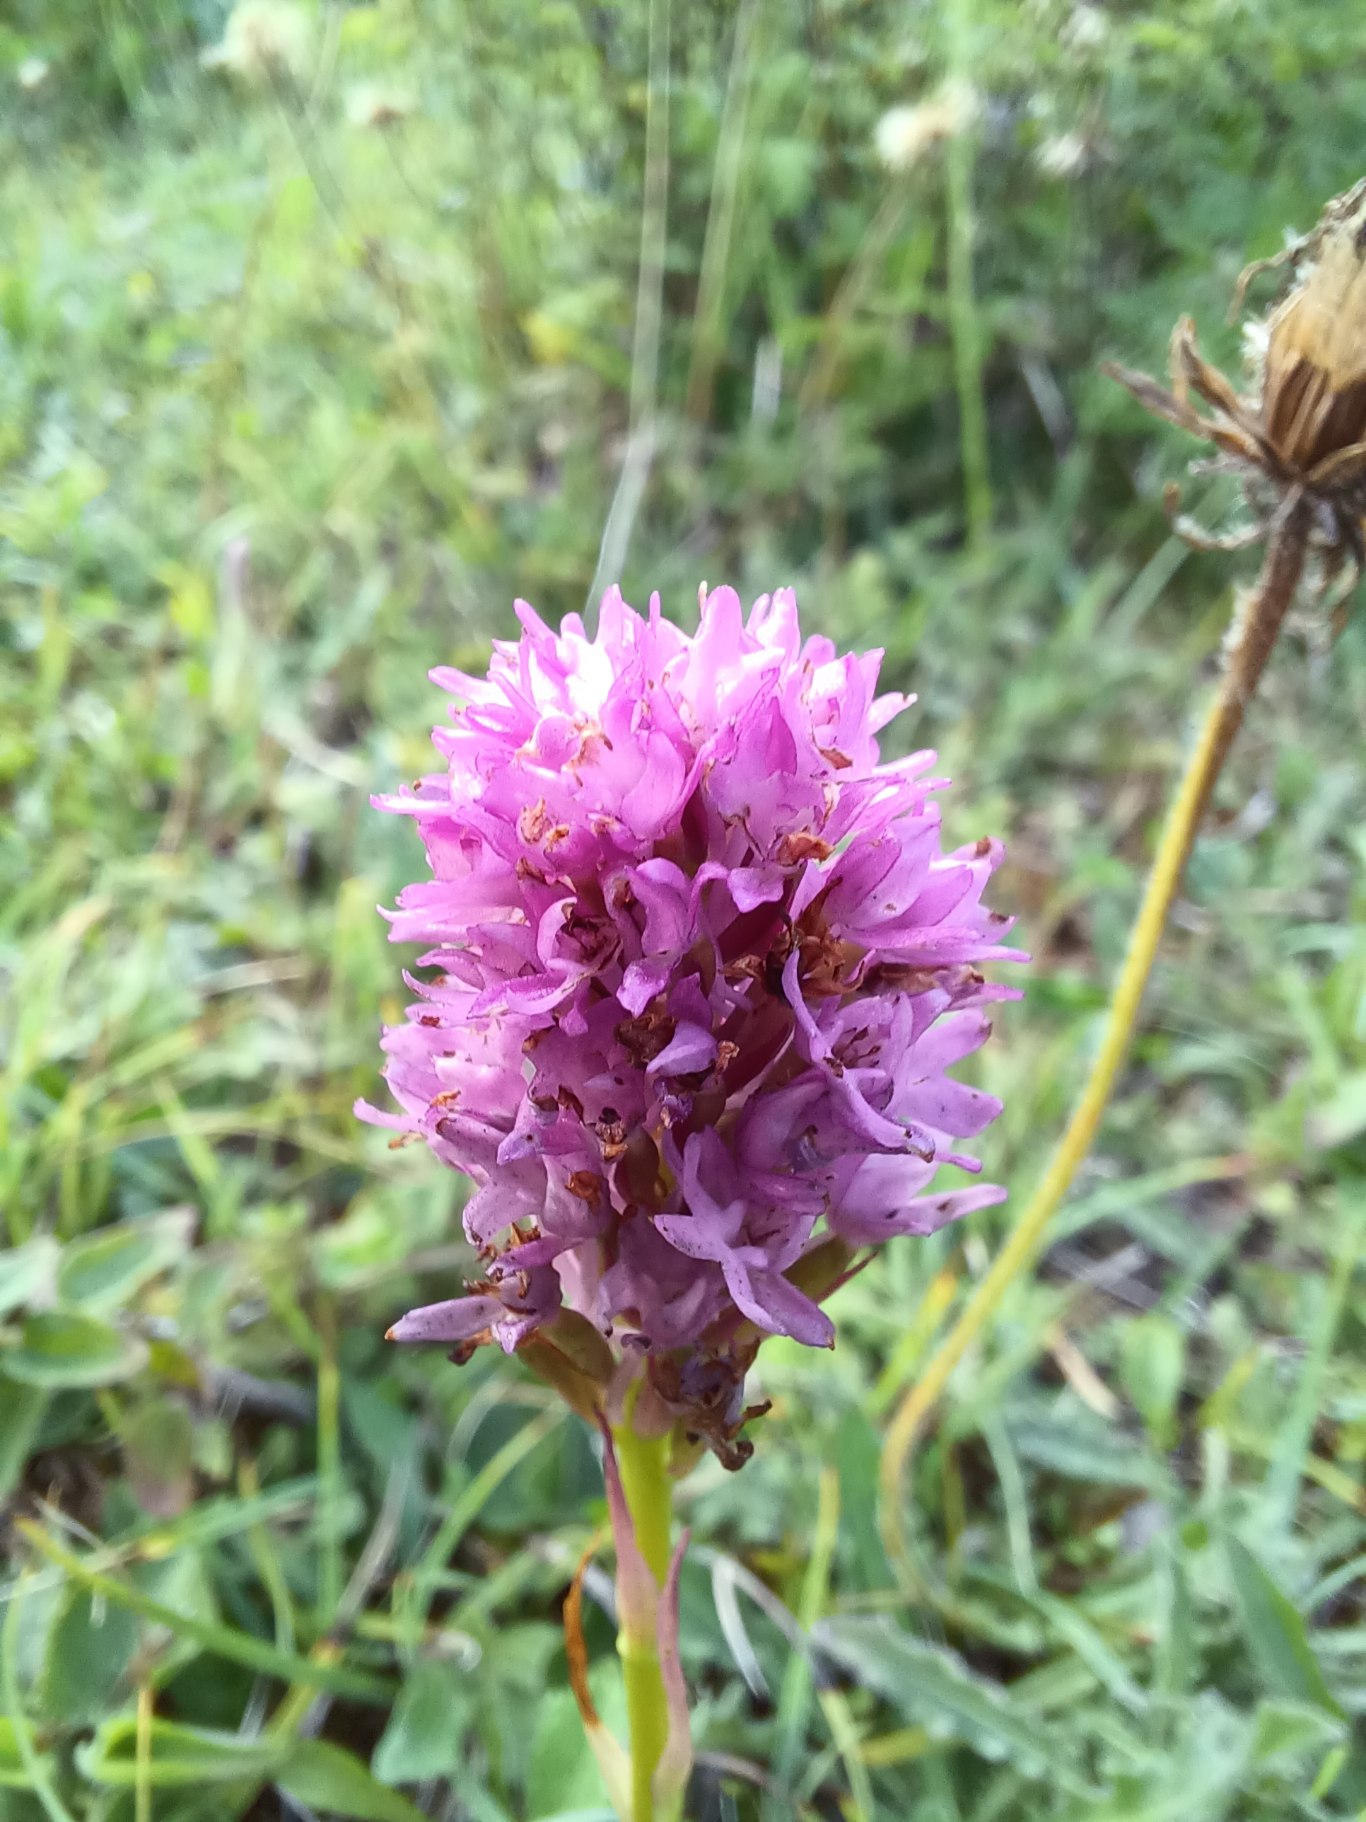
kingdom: Plantae
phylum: Tracheophyta
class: Liliopsida
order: Asparagales
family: Orchidaceae
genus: Anacamptis
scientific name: Anacamptis pyramidalis
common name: Horndrager
